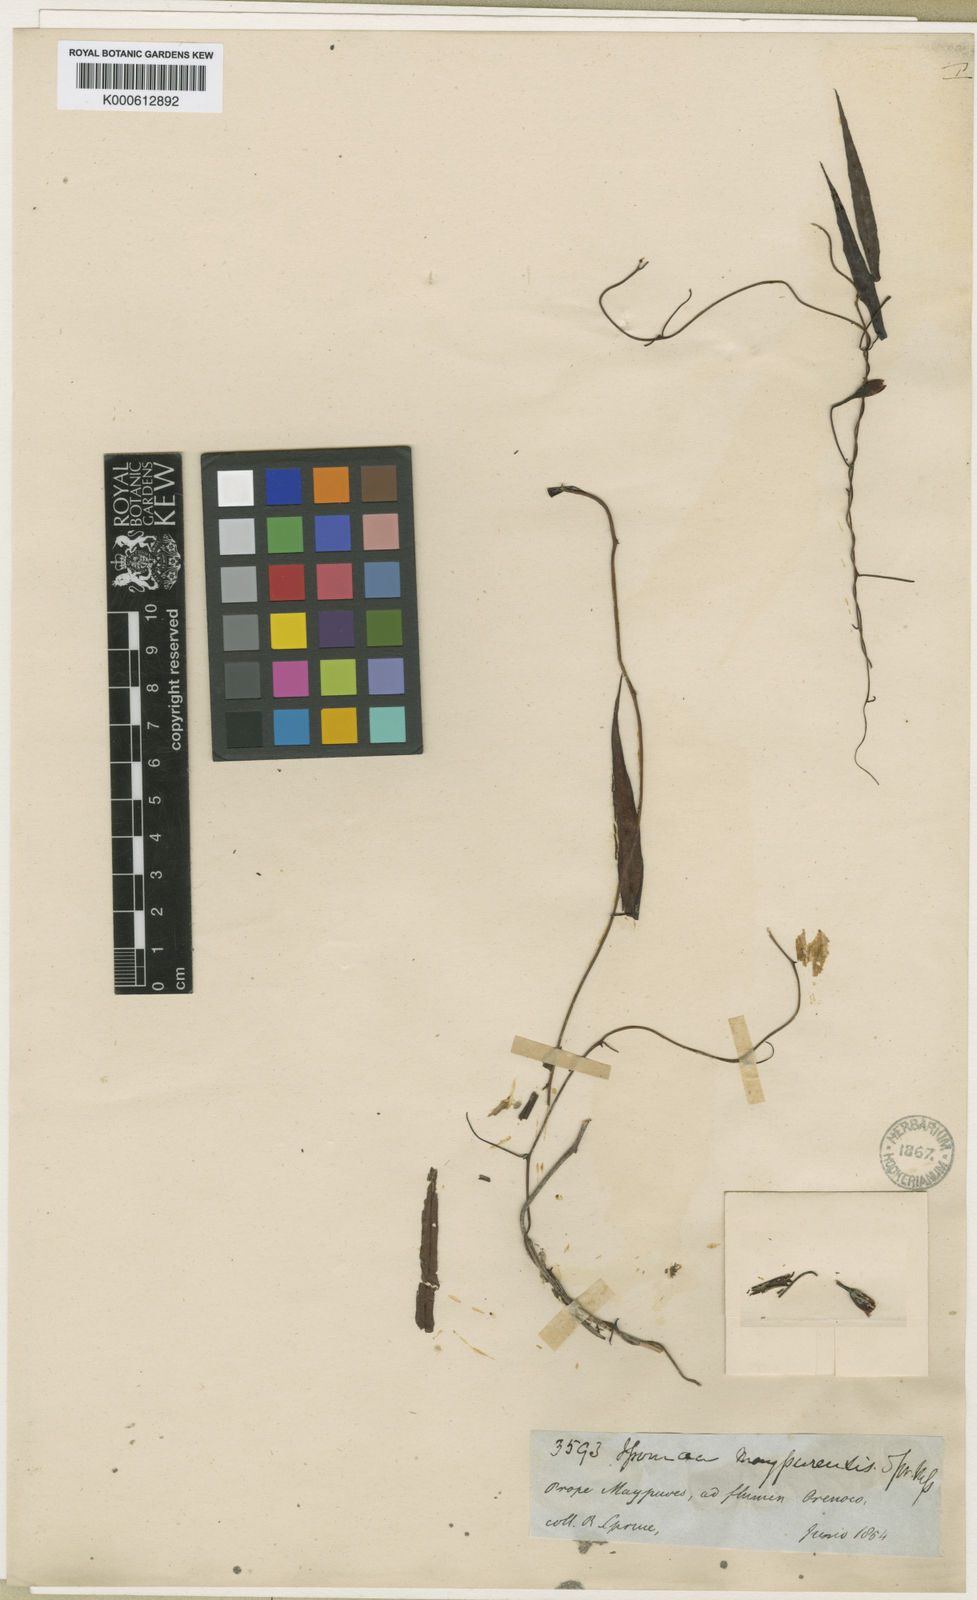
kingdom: Plantae
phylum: Tracheophyta
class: Magnoliopsida
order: Solanales
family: Convolvulaceae
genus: Operculina
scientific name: Operculina maypurensis
